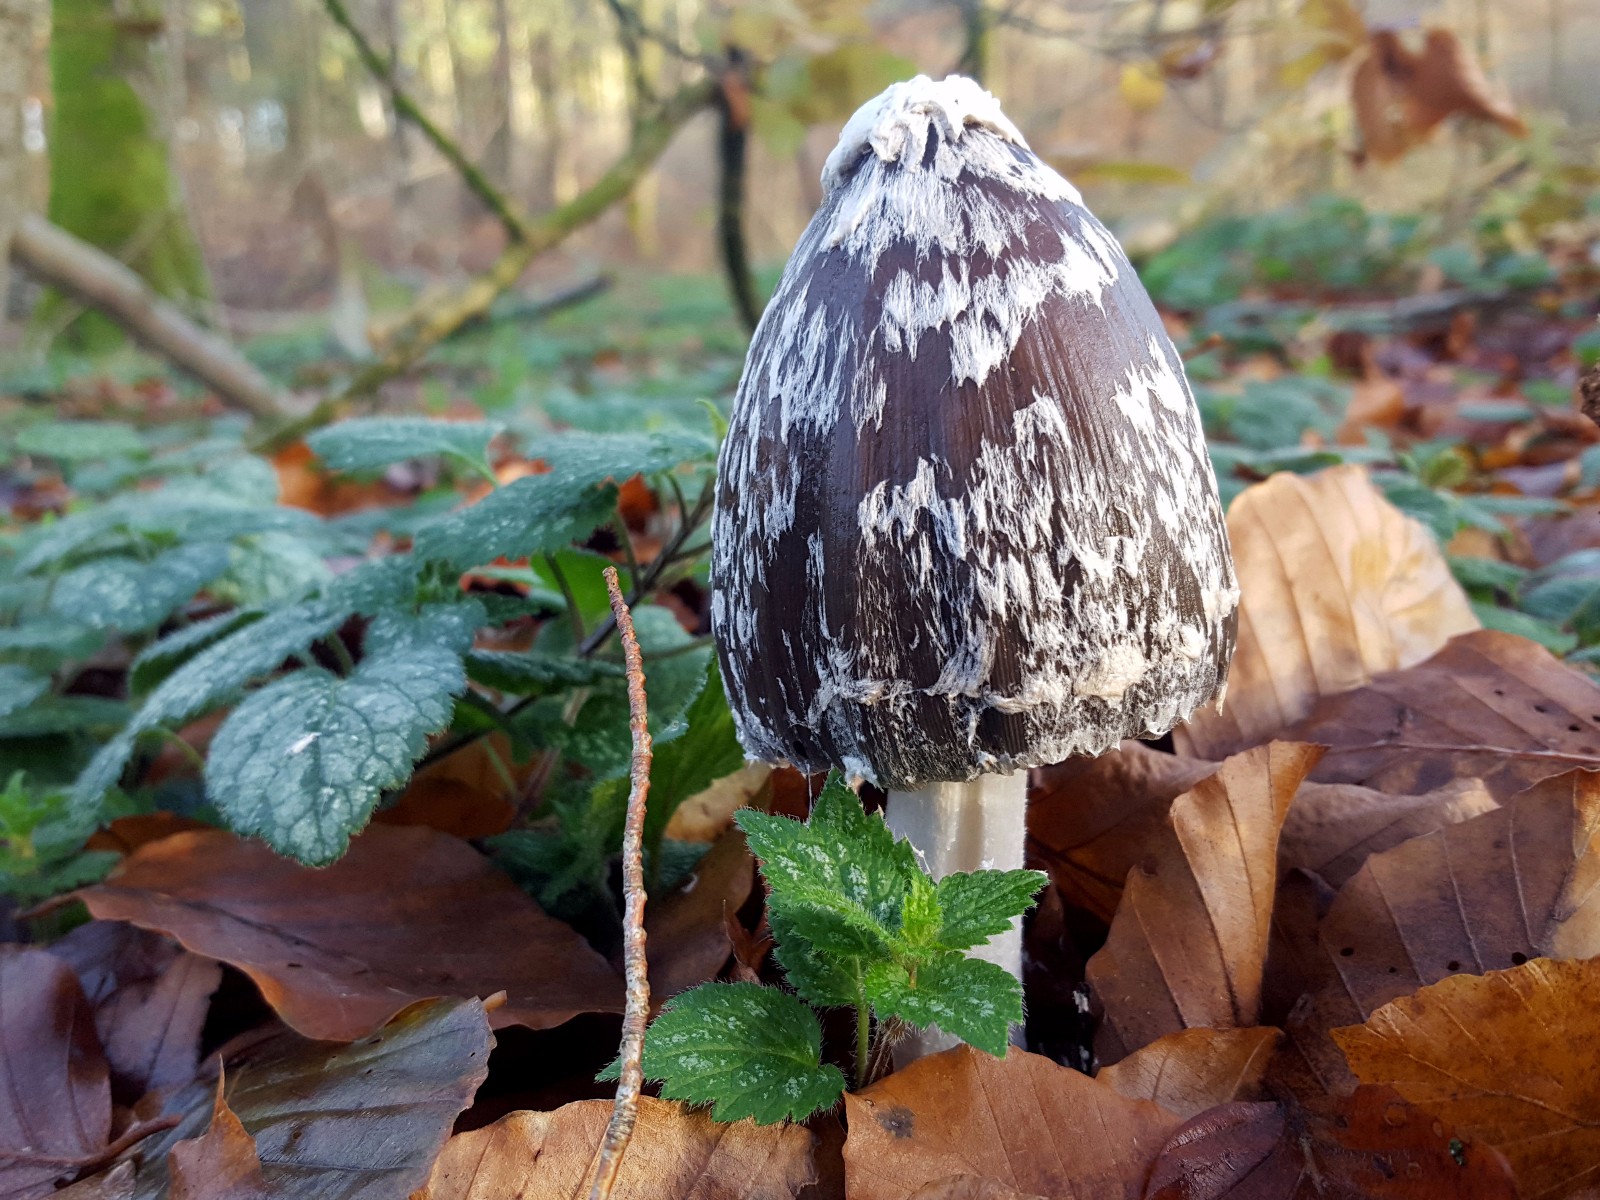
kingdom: Fungi
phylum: Basidiomycota
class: Agaricomycetes
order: Agaricales
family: Psathyrellaceae
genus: Coprinopsis
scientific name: Coprinopsis picacea
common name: skade-blækhat
